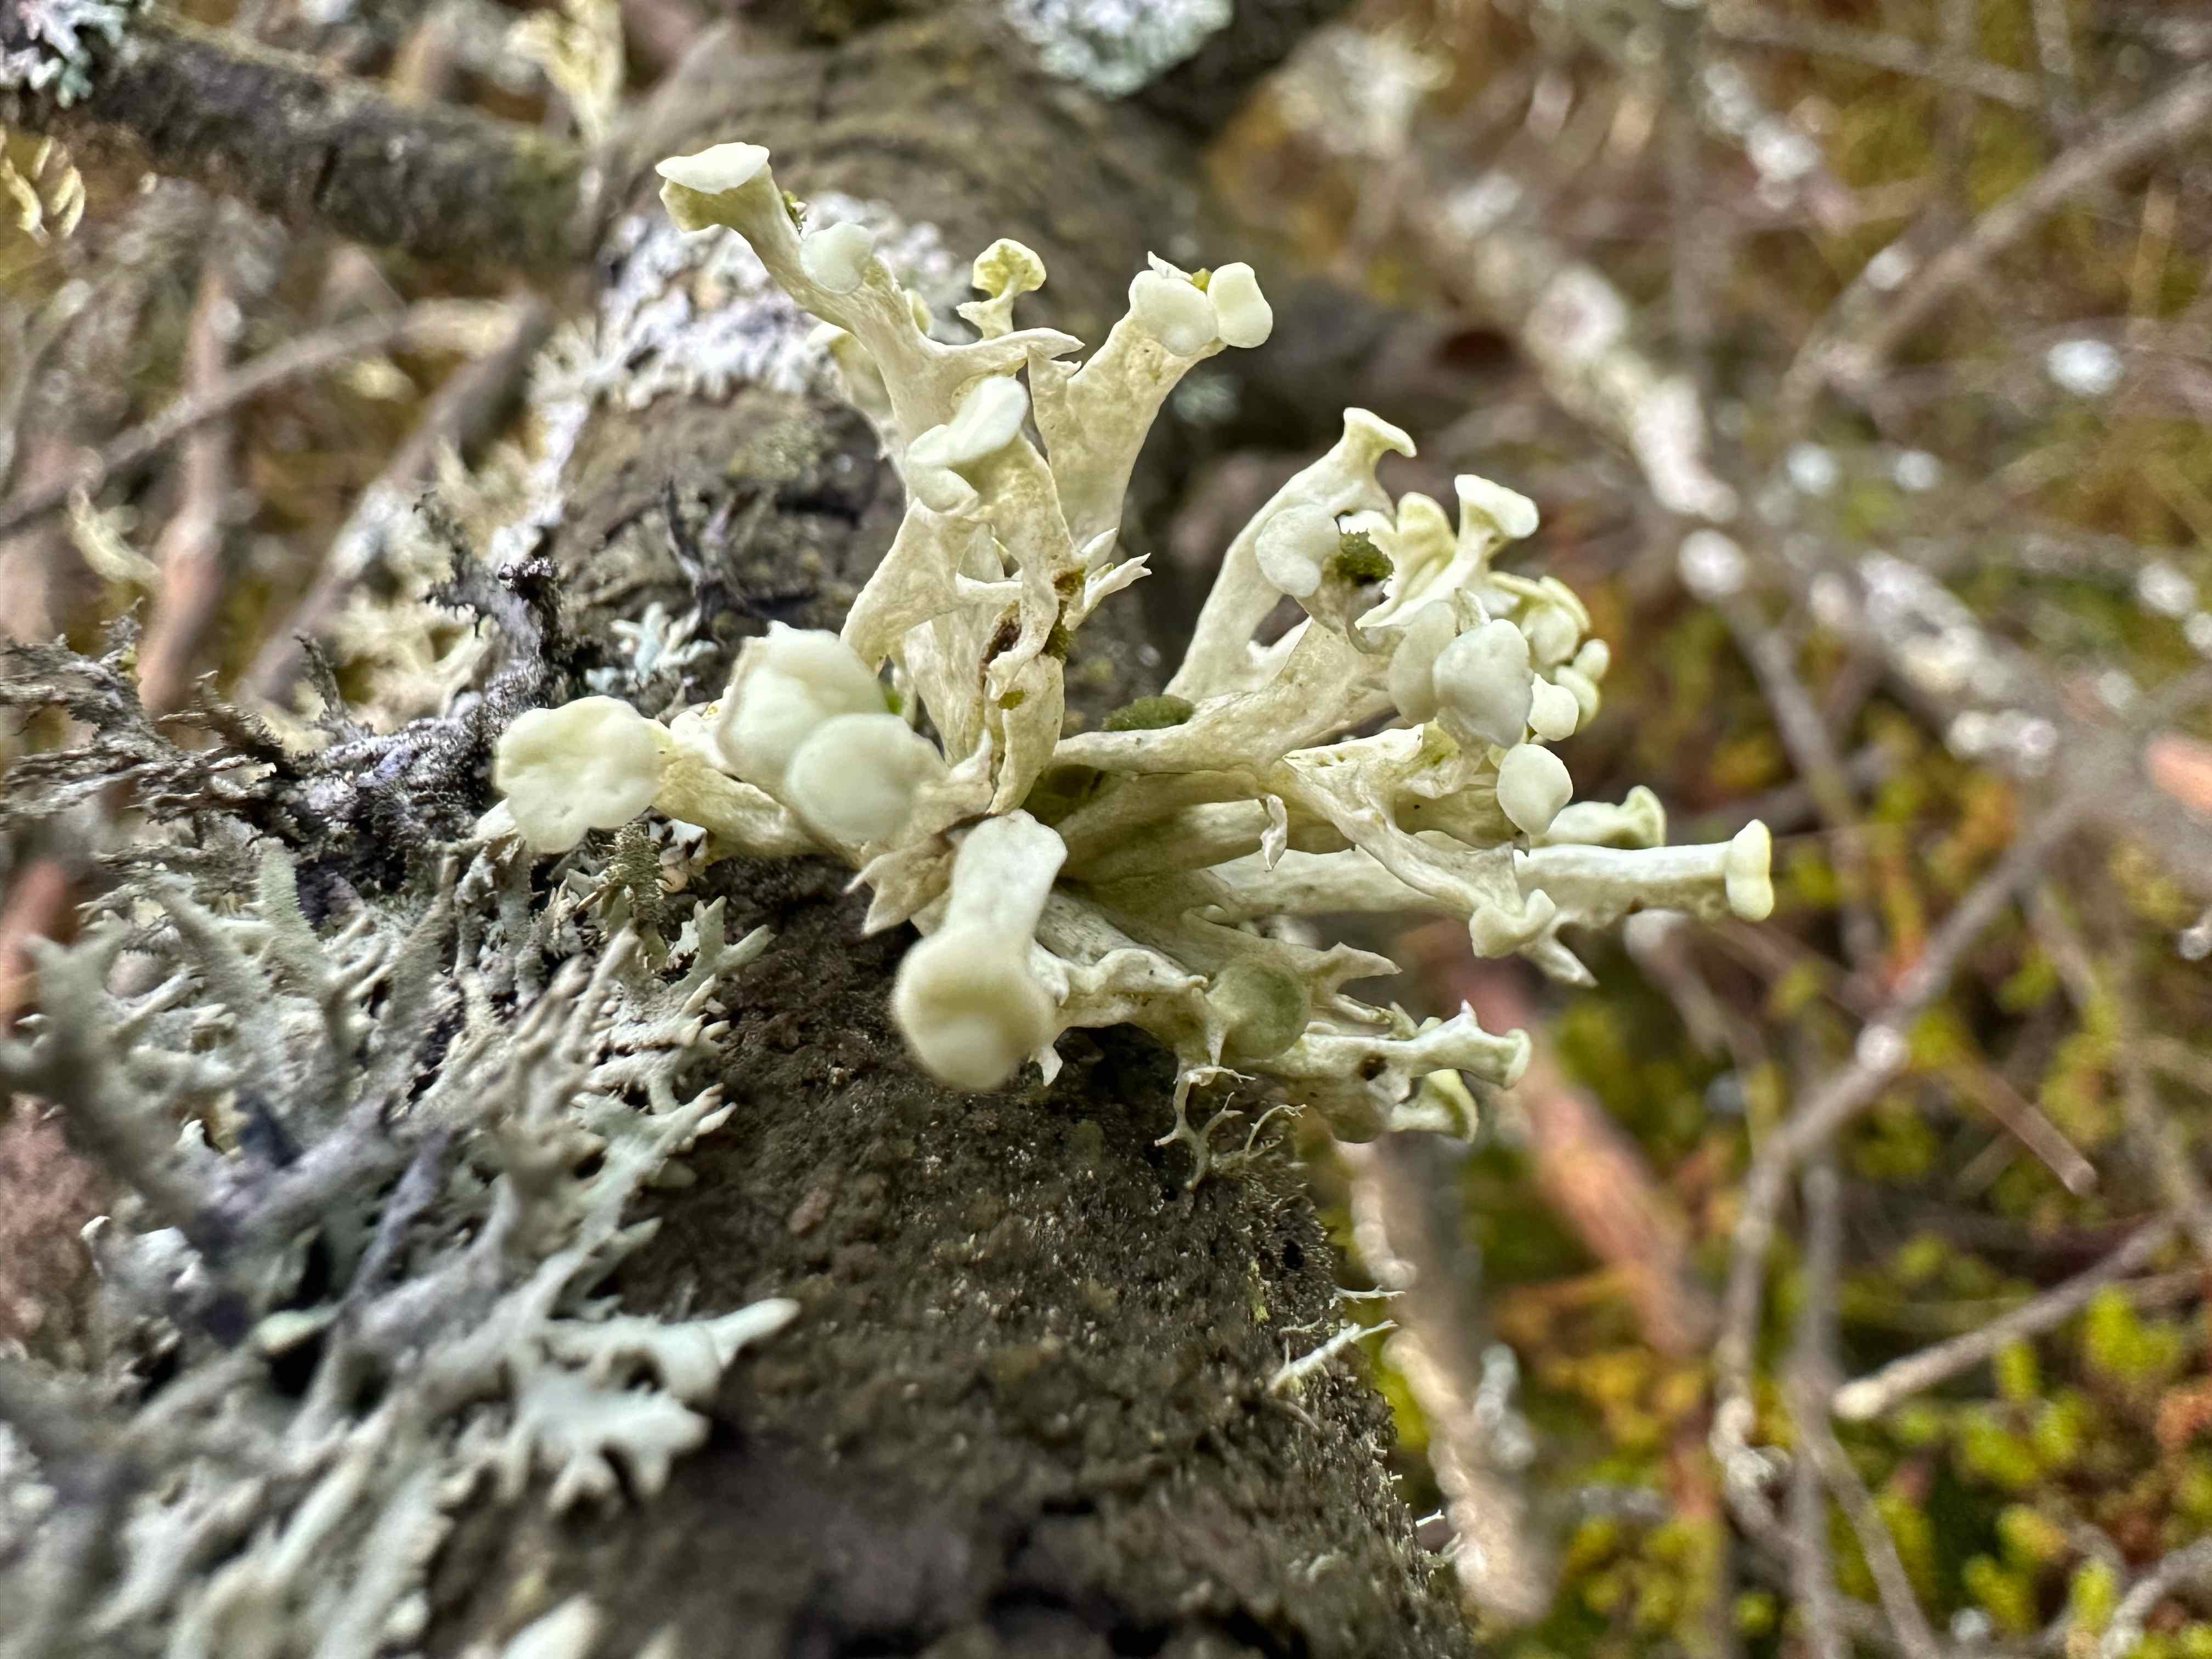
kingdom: Fungi
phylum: Ascomycota
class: Lecanoromycetes
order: Lecanorales
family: Ramalinaceae
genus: Ramalina
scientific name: Ramalina fastigiata
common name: tue-grenlav
